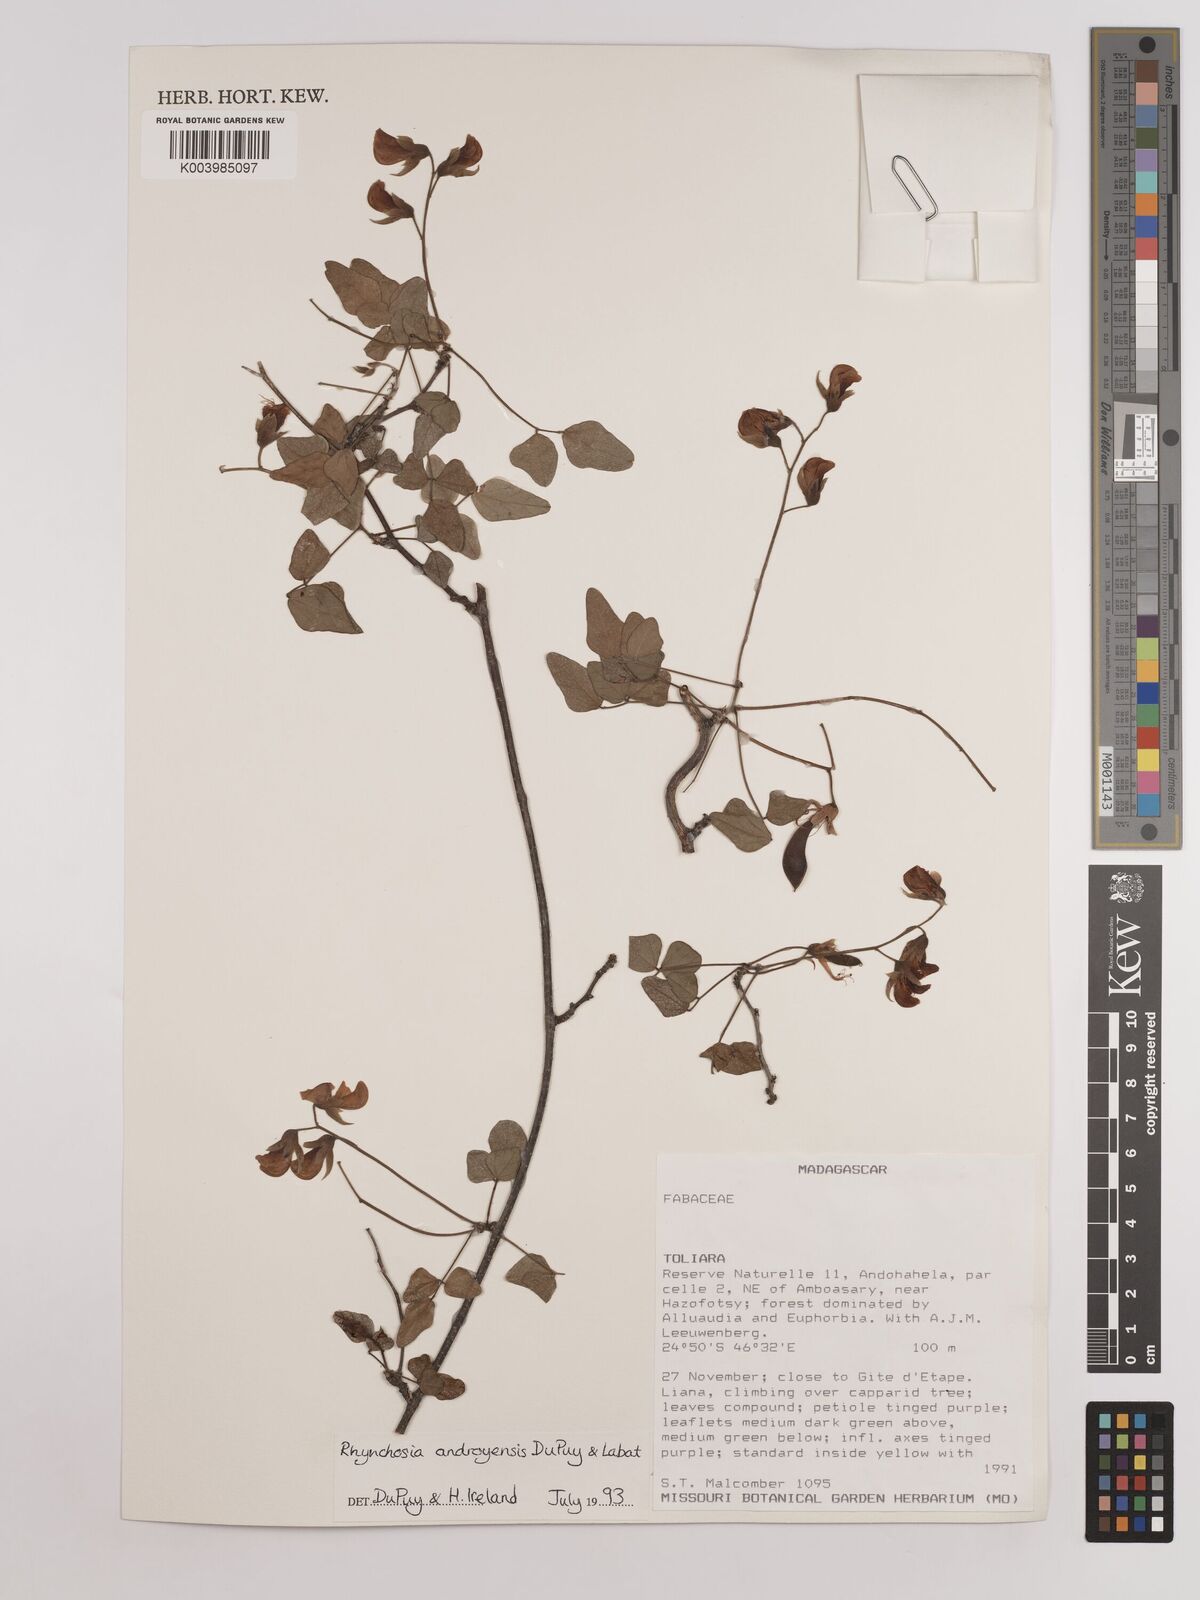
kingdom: Plantae
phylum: Tracheophyta
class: Magnoliopsida
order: Fabales
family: Fabaceae
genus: Rhynchosia
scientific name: Rhynchosia androyensis
